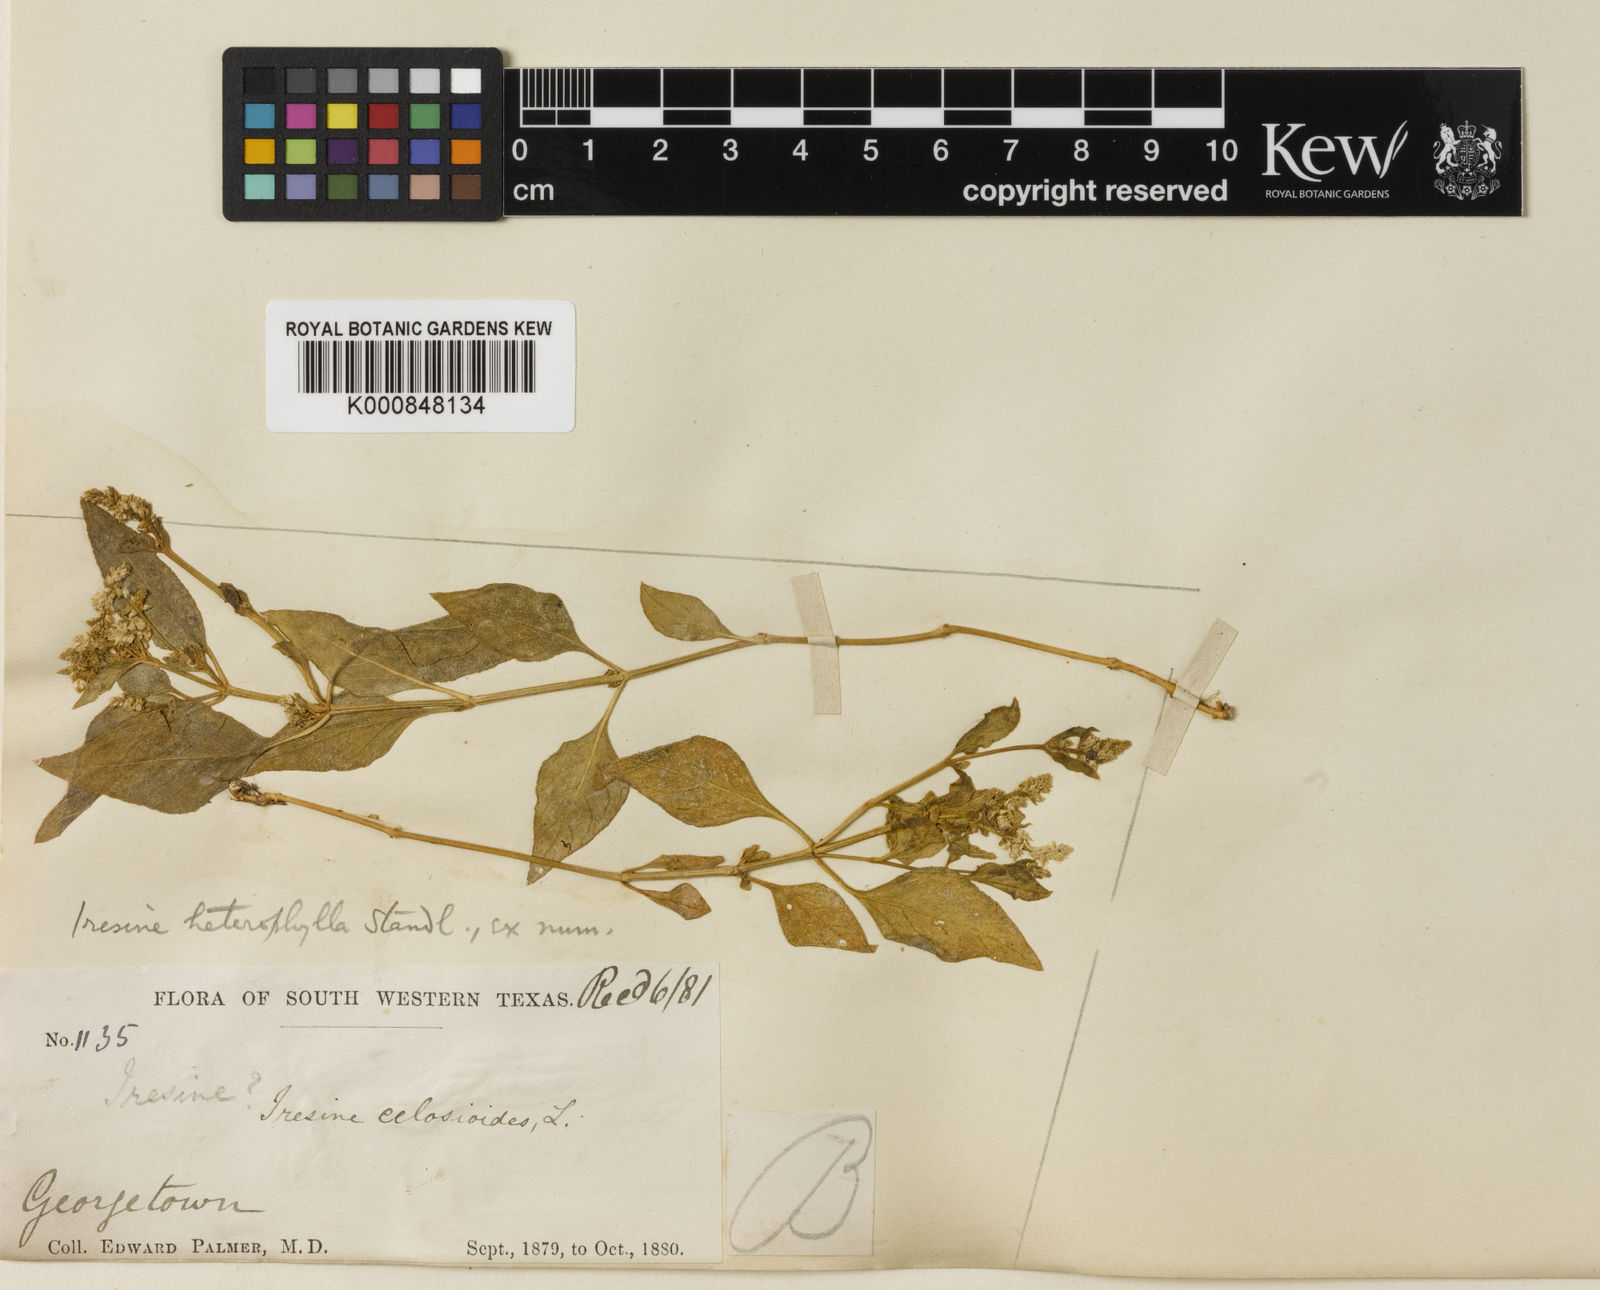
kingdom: Plantae
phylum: Tracheophyta
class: Magnoliopsida
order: Caryophyllales
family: Amaranthaceae
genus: Iresine
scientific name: Iresine heterophylla
